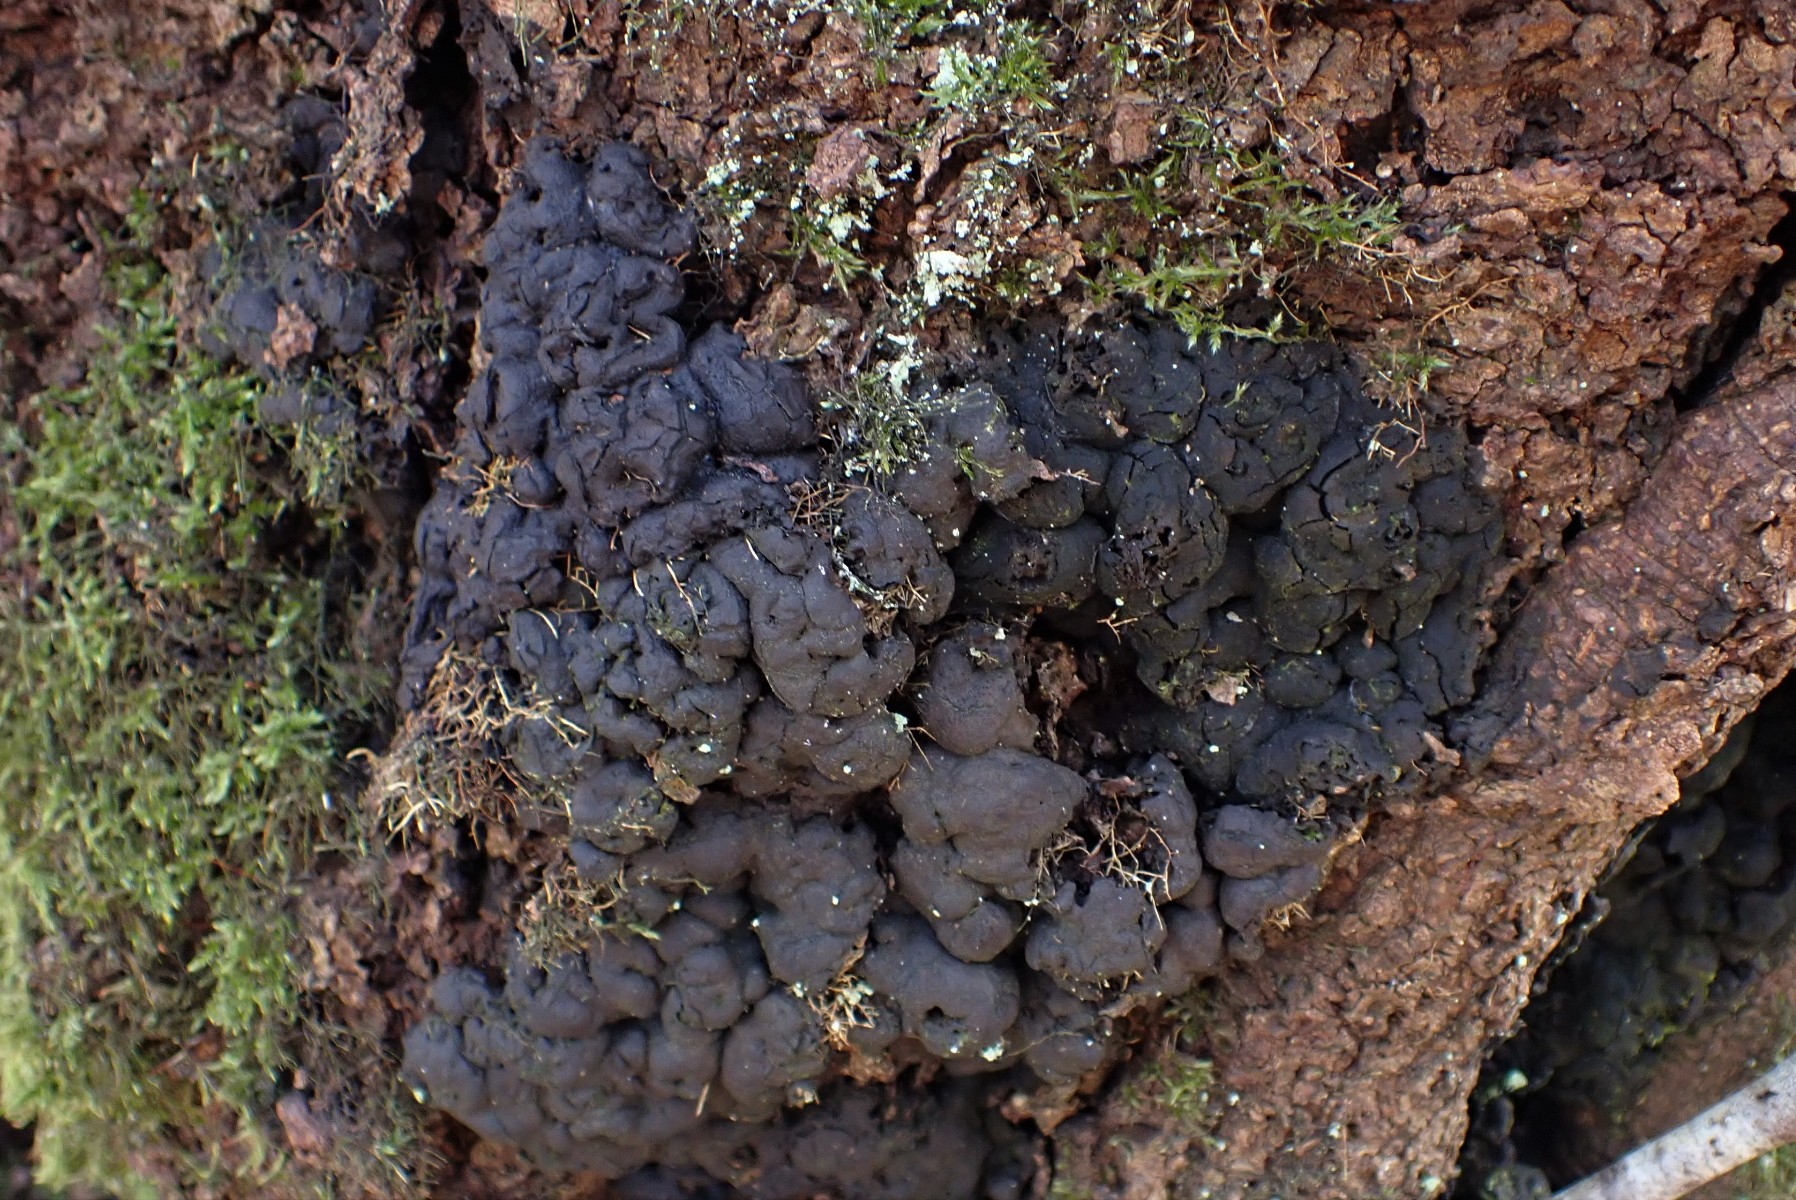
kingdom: Fungi
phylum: Ascomycota
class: Sordariomycetes
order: Xylariales
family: Xylariaceae
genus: Kretzschmaria
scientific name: Kretzschmaria deusta
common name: stor kulsvamp
